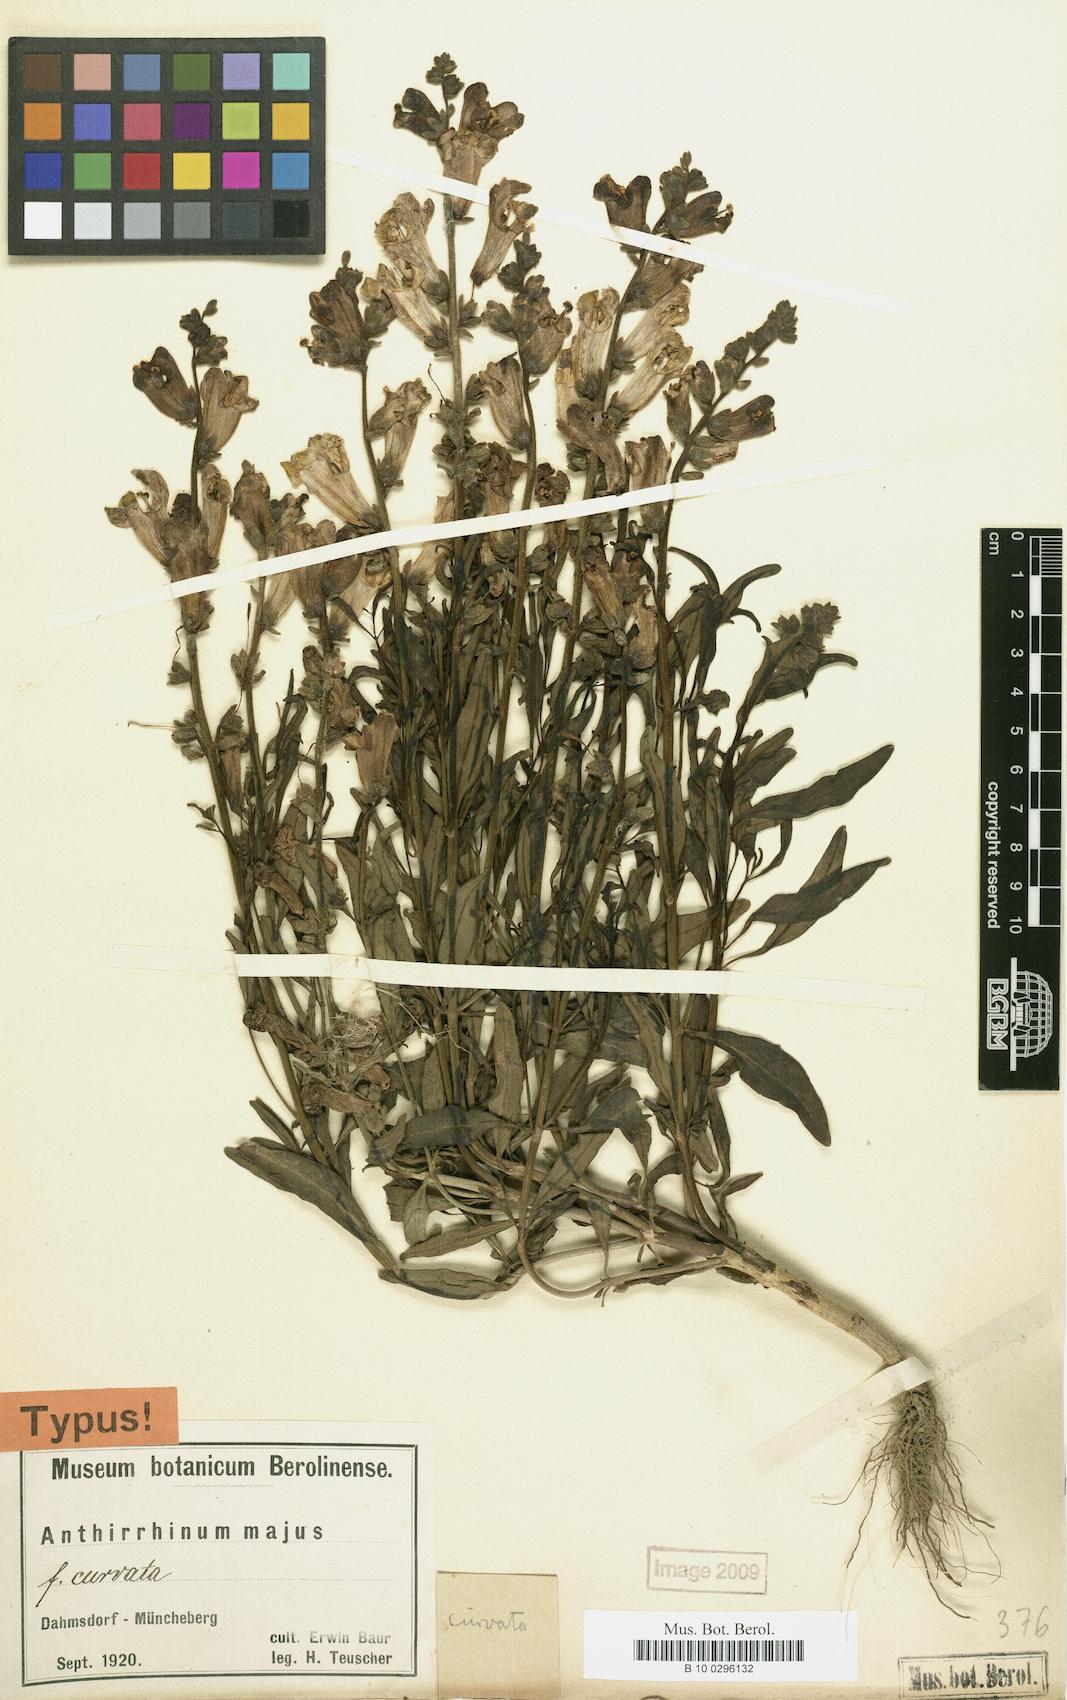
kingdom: Plantae
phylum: Tracheophyta
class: Magnoliopsida
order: Lamiales
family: Plantaginaceae
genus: Antirrhinum
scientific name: Antirrhinum majus
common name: Snapdragon
